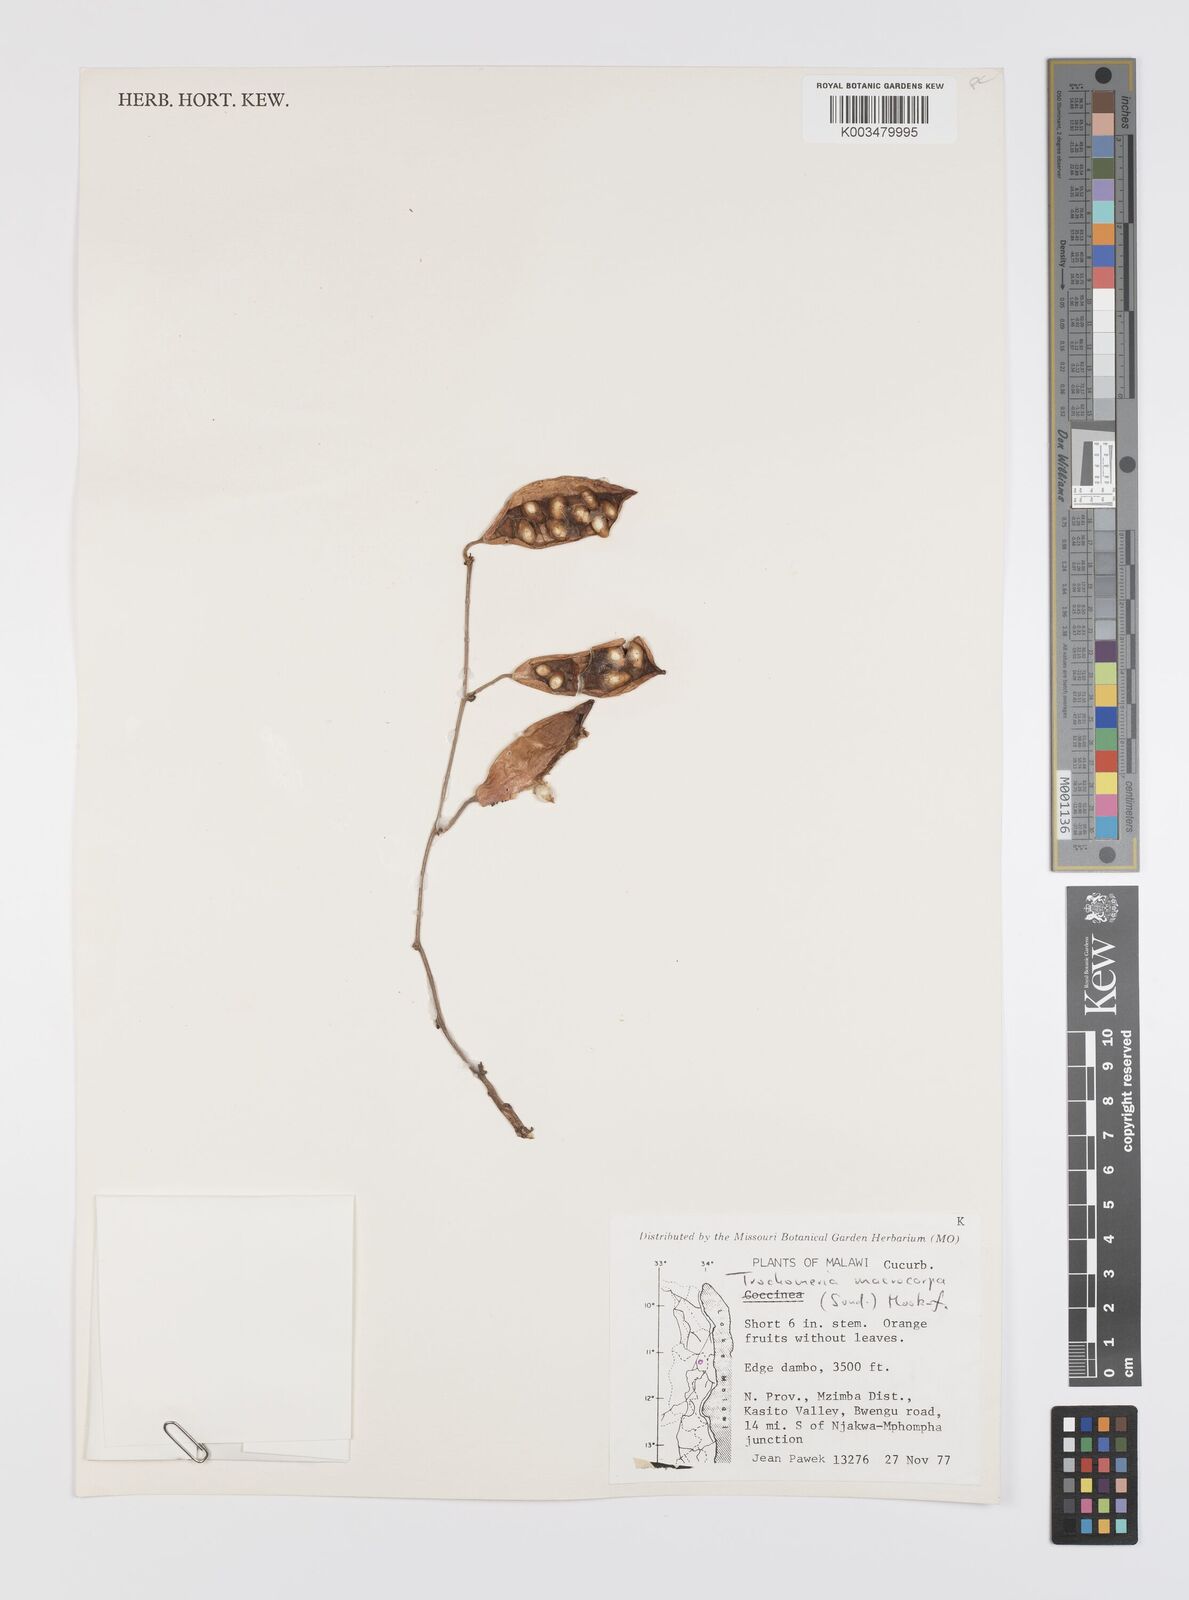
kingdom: Plantae
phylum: Tracheophyta
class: Magnoliopsida
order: Cucurbitales
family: Cucurbitaceae
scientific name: Cucurbitaceae
